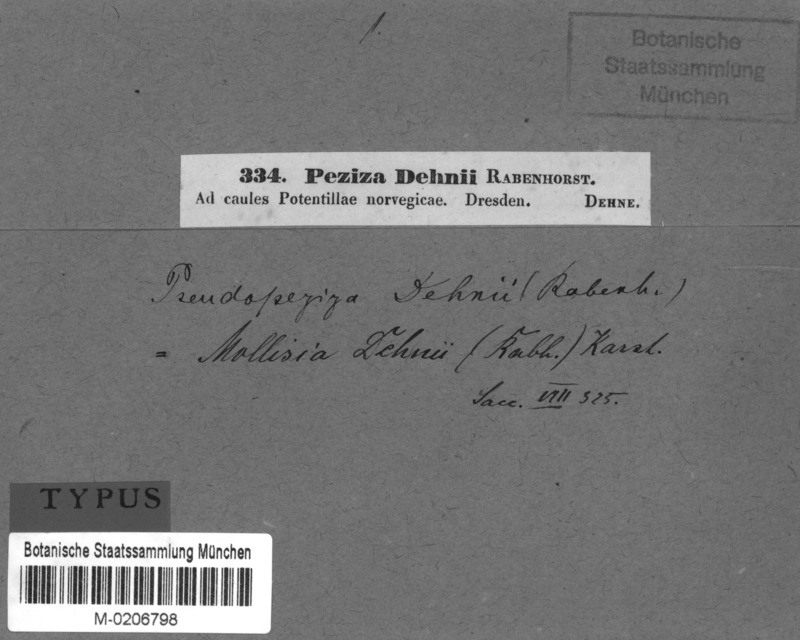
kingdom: Fungi
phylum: Ascomycota
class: Leotiomycetes
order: Helotiales
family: Drepanopezizaceae
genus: Leptotrochila
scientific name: Leptotrochila dehnii
